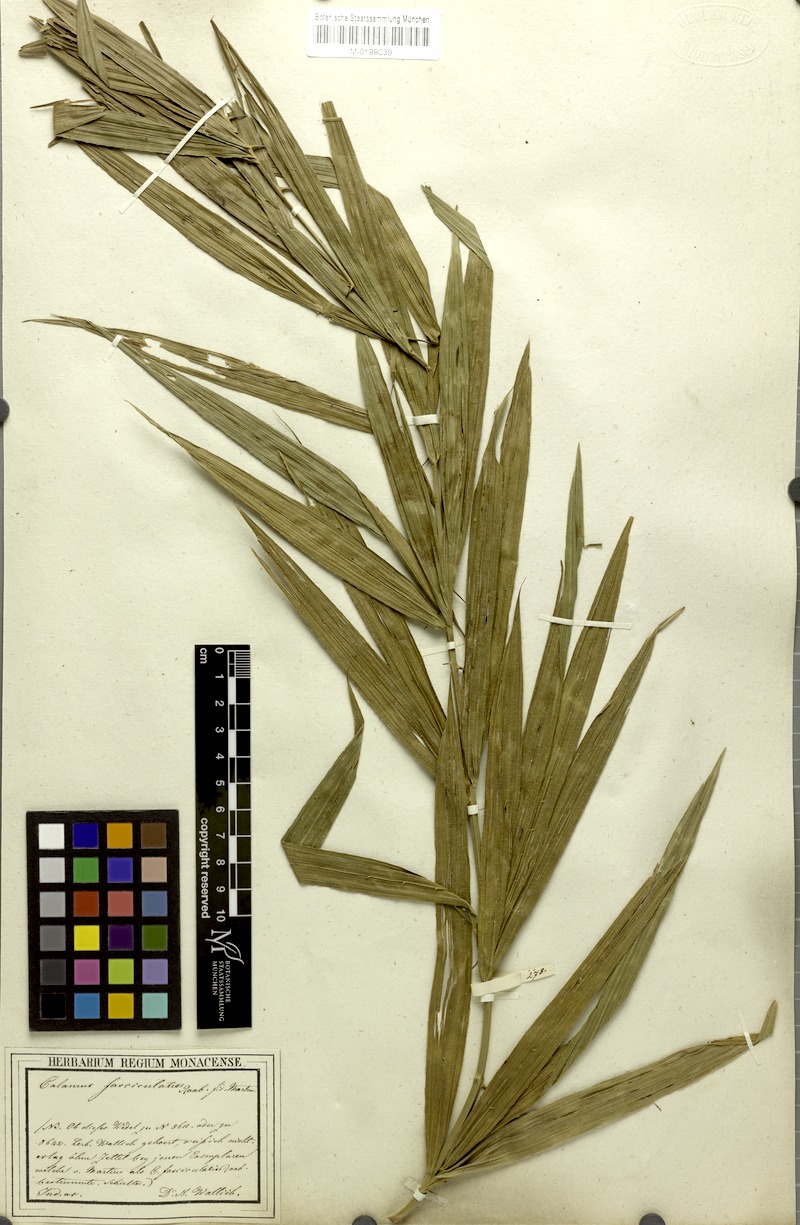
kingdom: Plantae
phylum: Tracheophyta
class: Liliopsida
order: Arecales
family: Arecaceae
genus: Calamus
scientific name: Calamus viminalis
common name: Osier-like rattan palm
